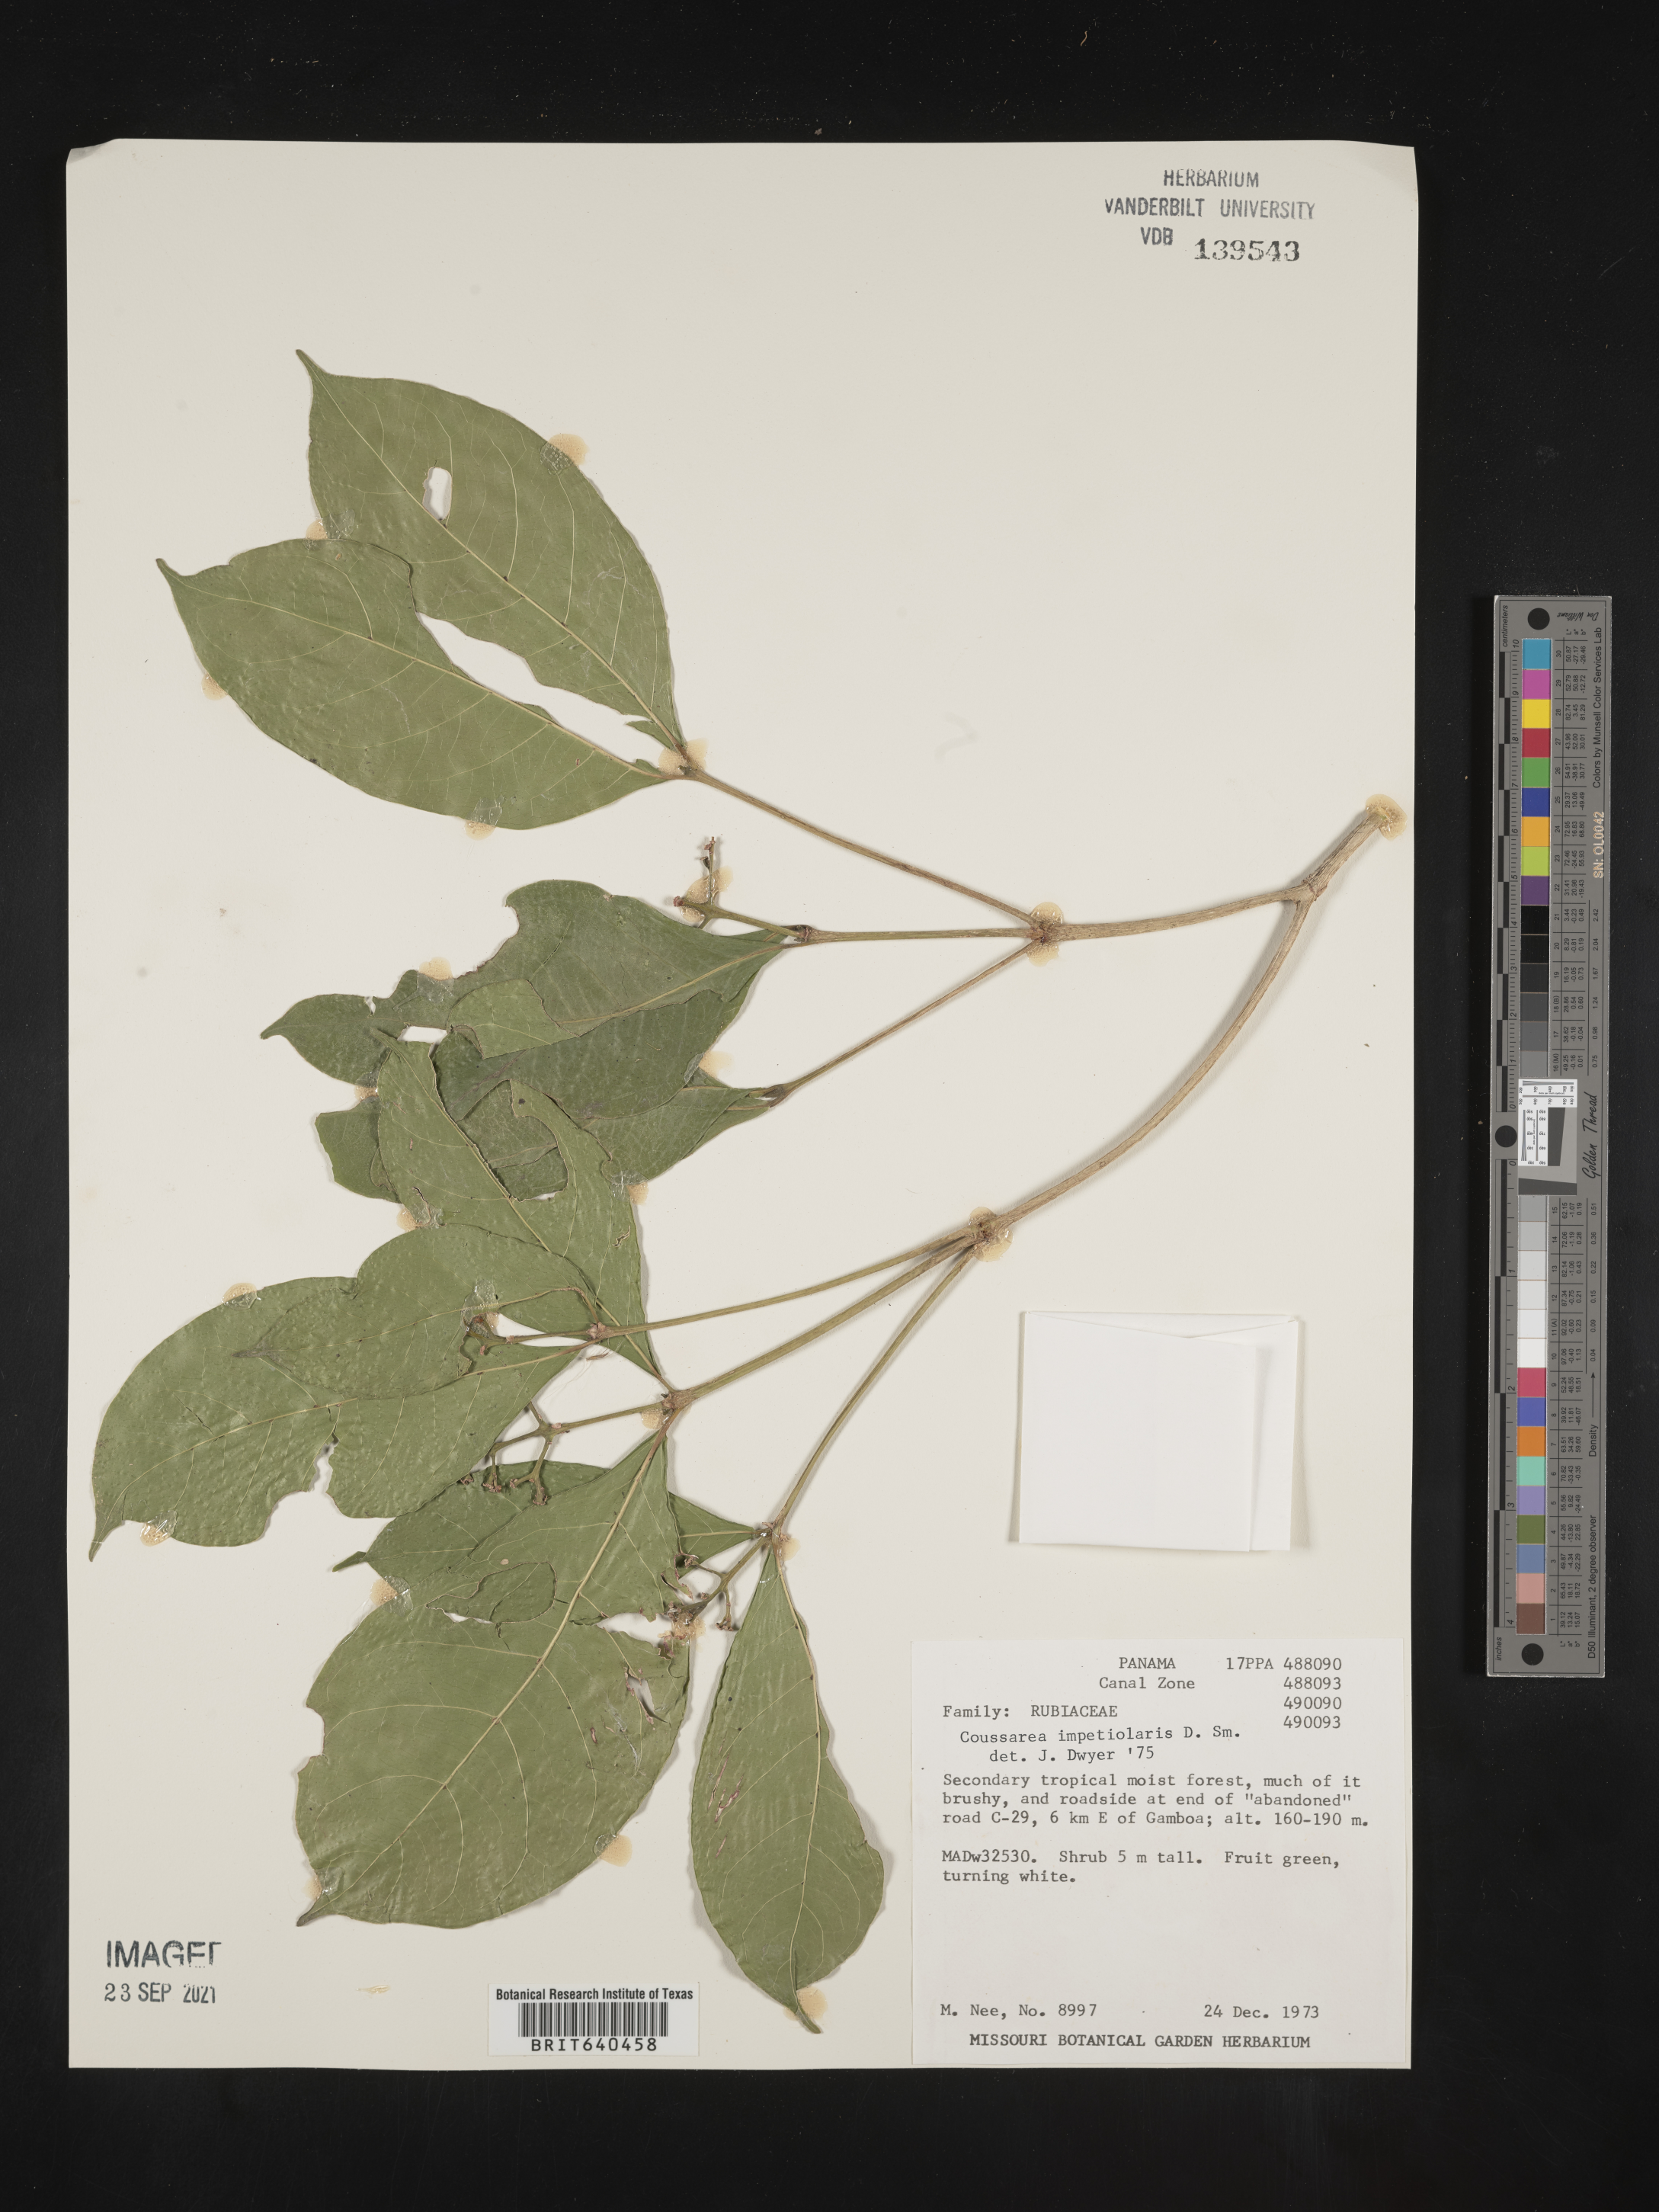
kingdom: Plantae
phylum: Tracheophyta
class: Magnoliopsida
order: Gentianales
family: Rubiaceae
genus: Coussarea
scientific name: Coussarea
